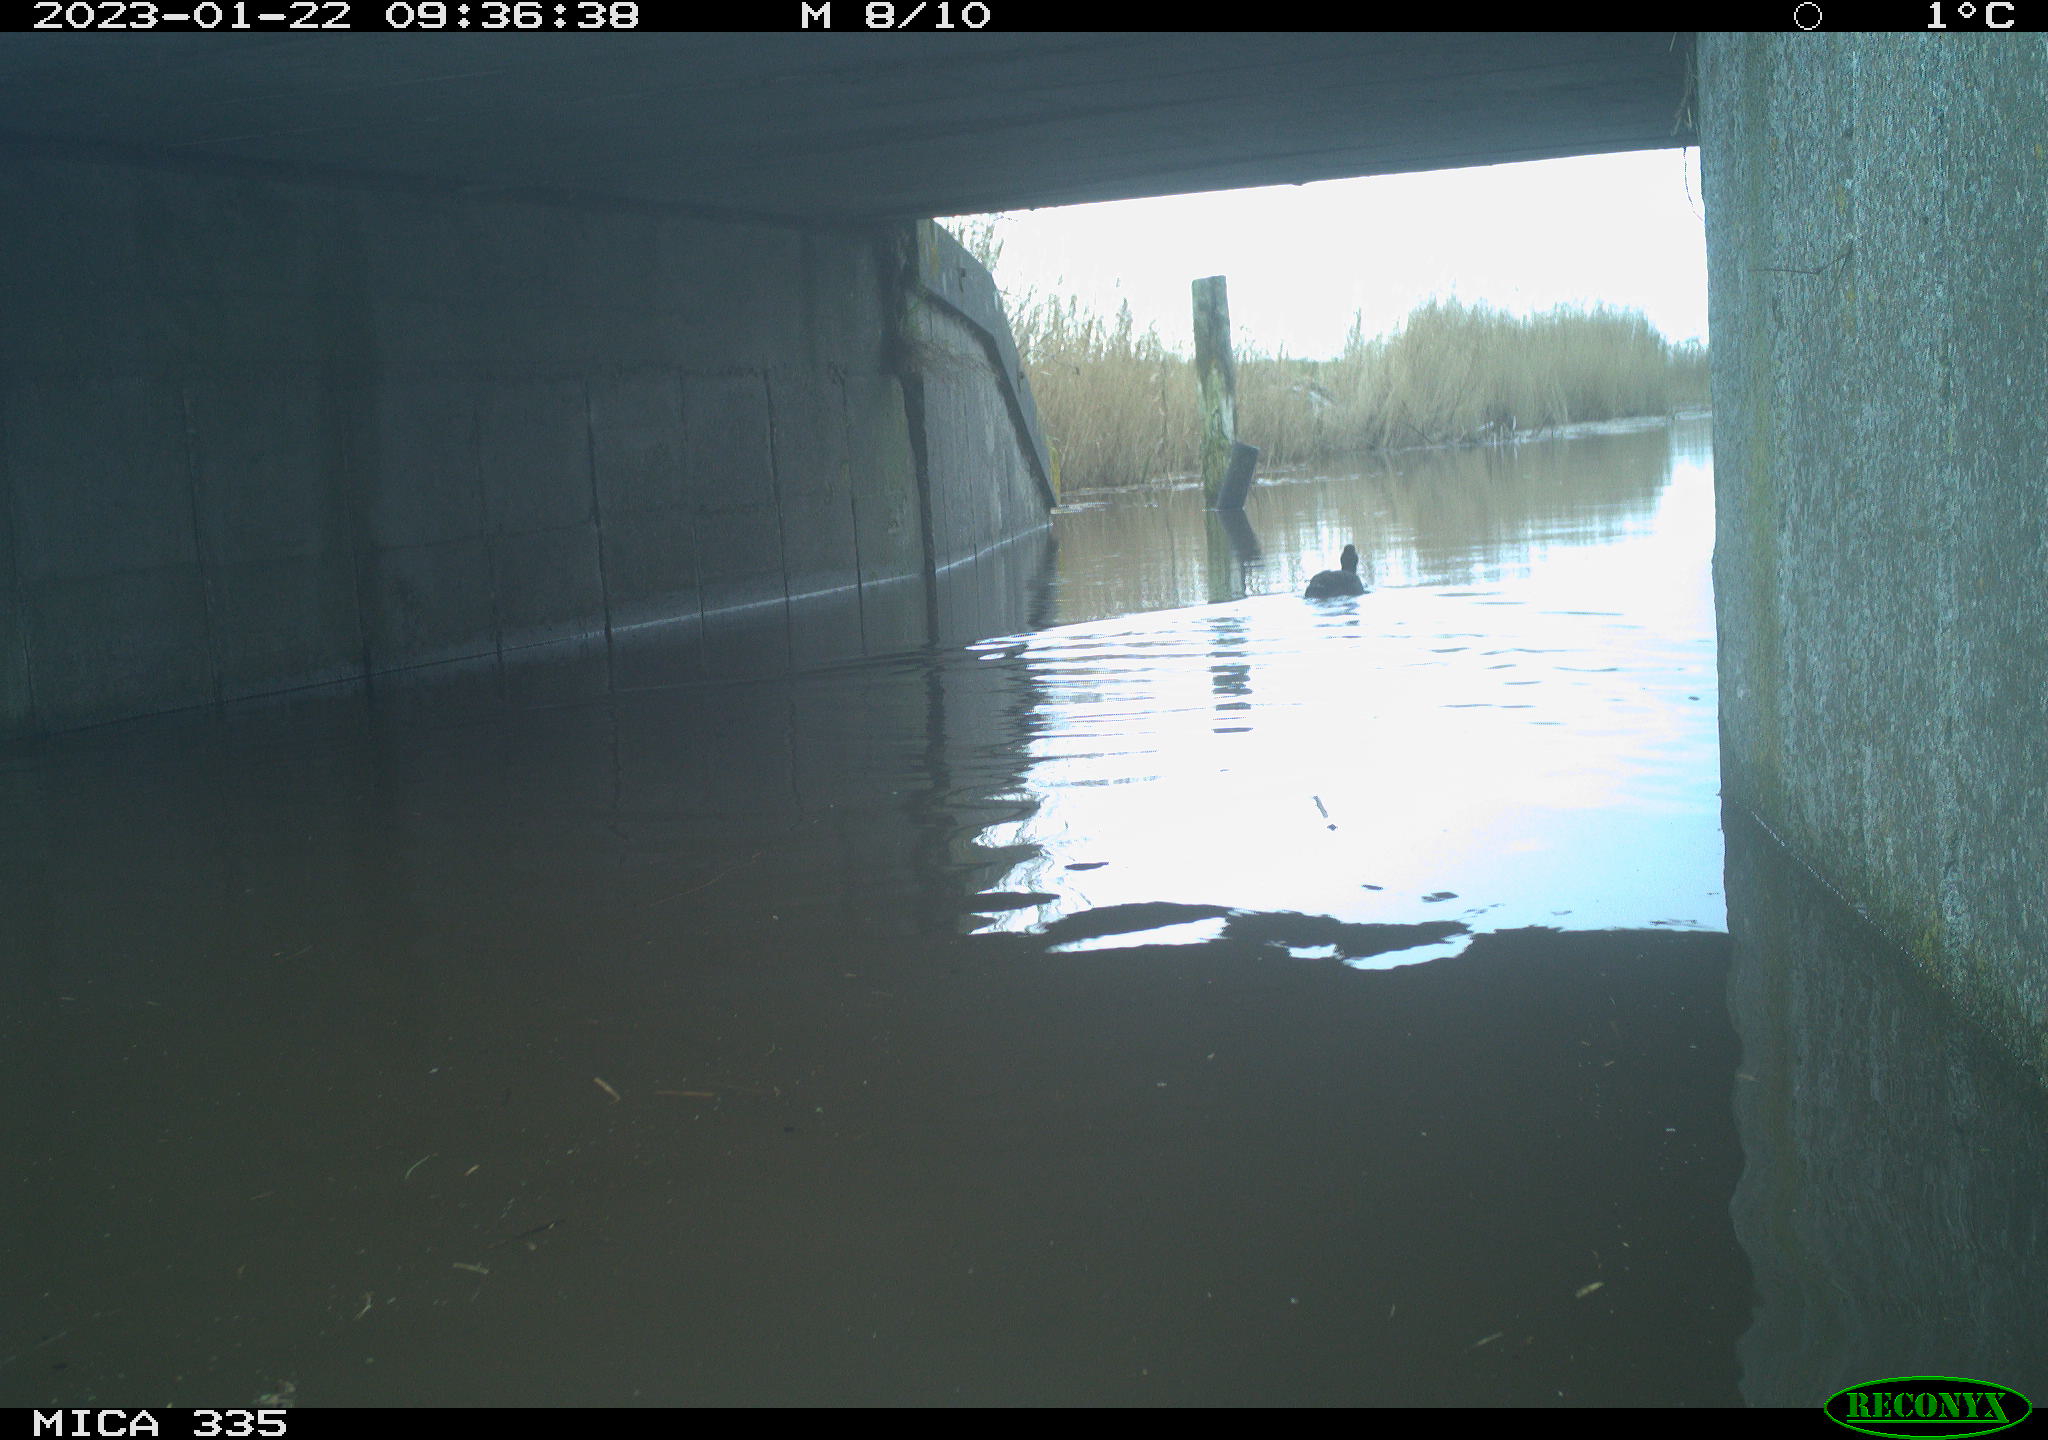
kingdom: Animalia
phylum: Chordata
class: Aves
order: Anseriformes
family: Anatidae
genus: Anas
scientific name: Anas
